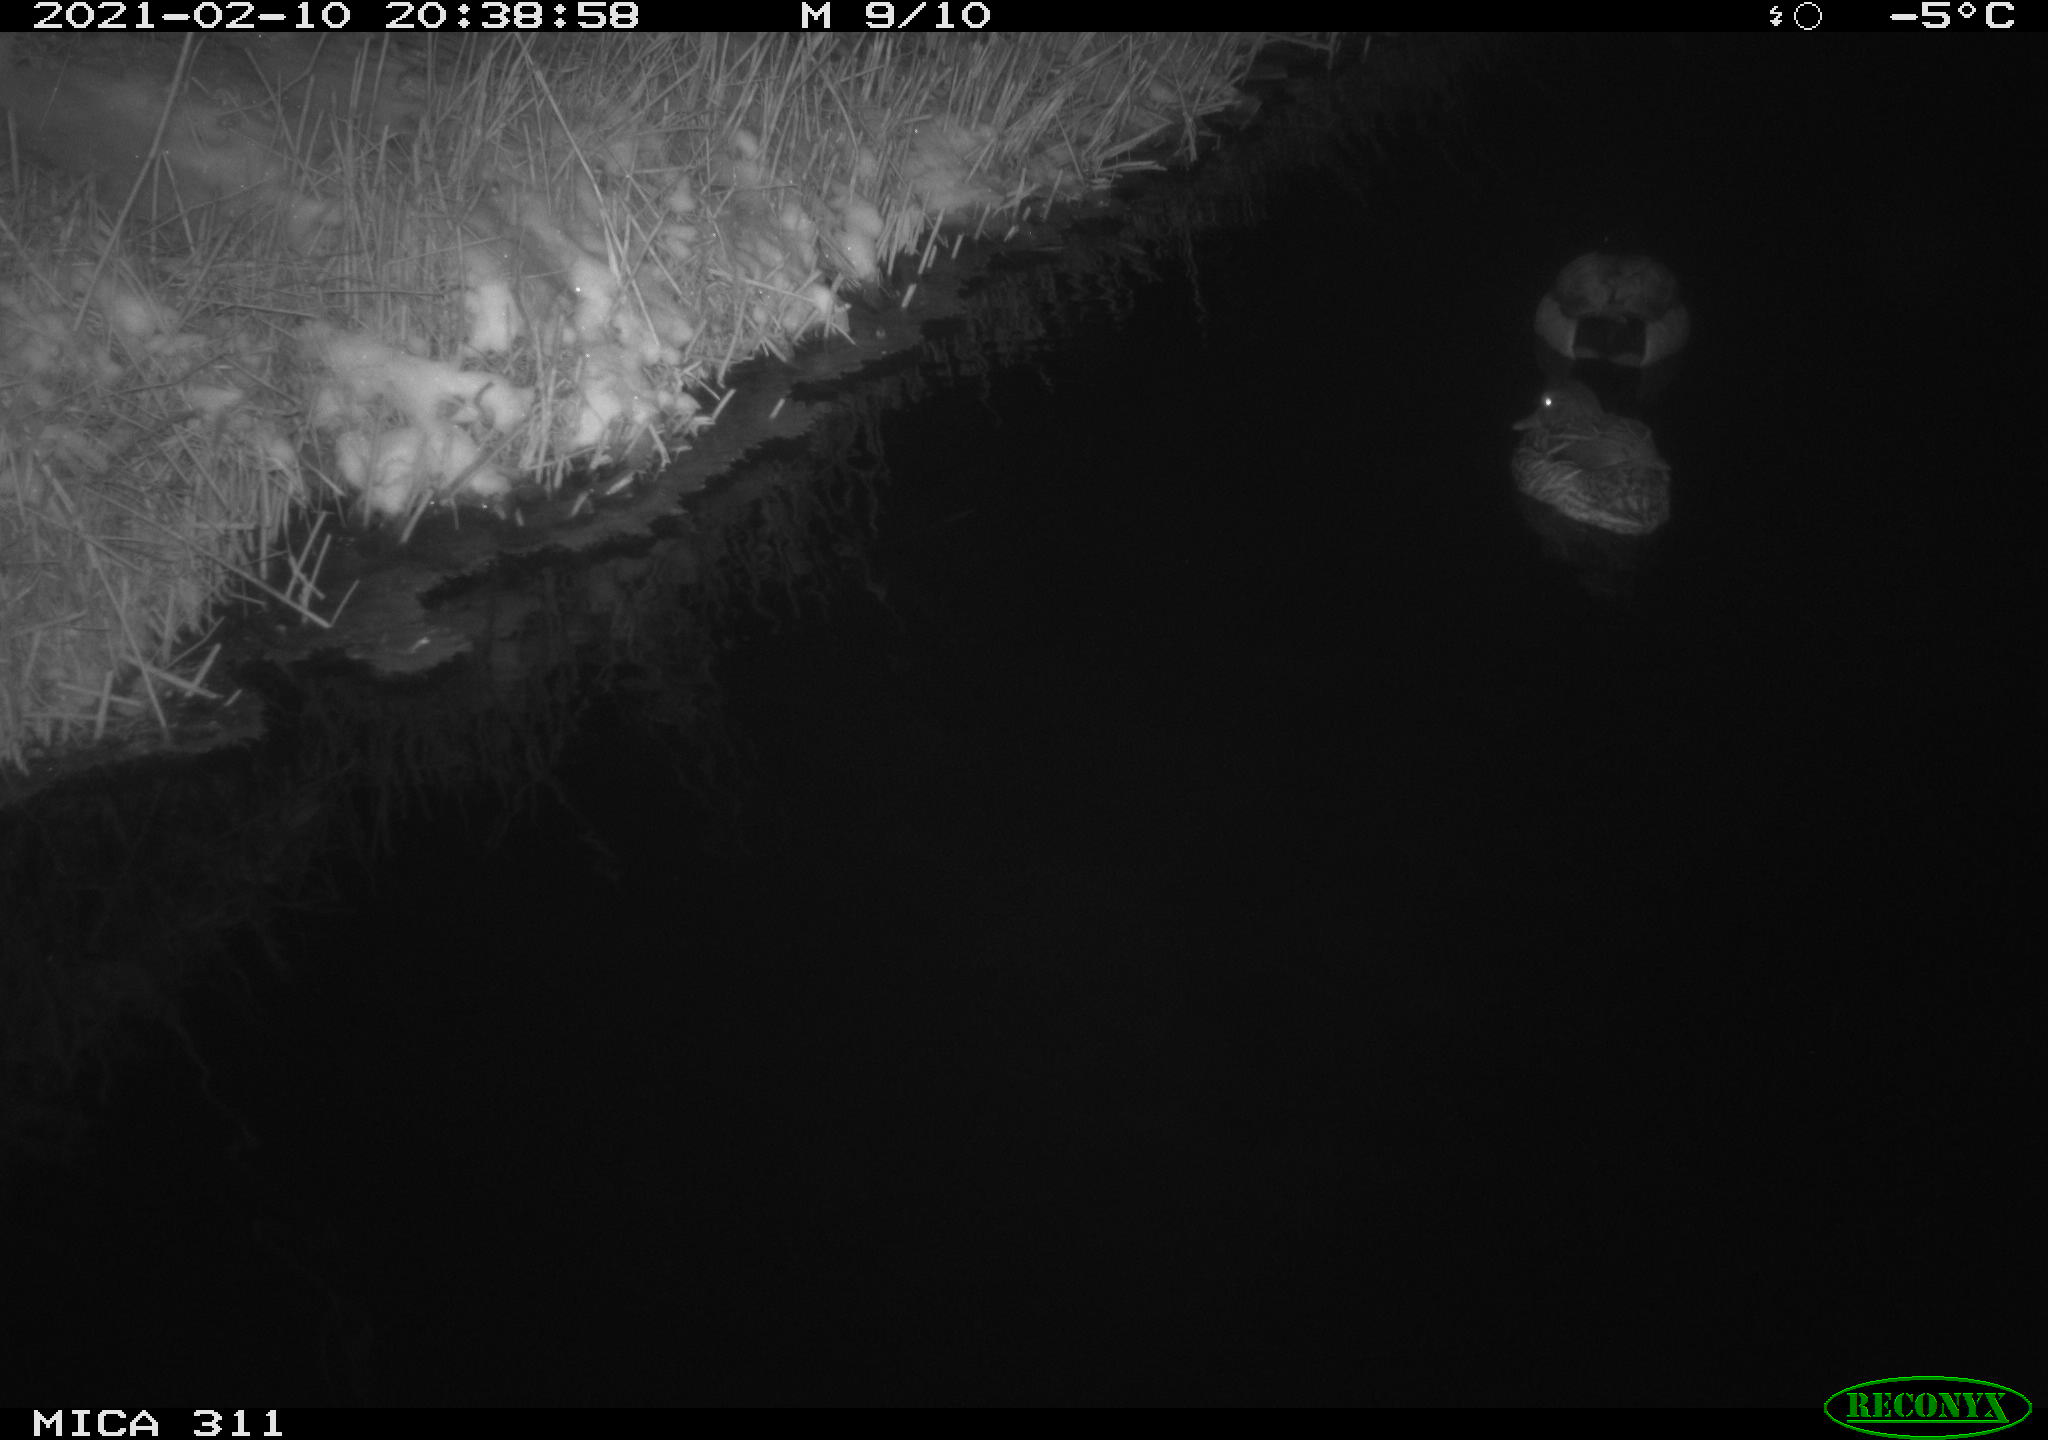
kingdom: Animalia
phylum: Chordata
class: Aves
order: Anseriformes
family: Anatidae
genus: Anas
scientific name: Anas platyrhynchos
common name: Mallard
